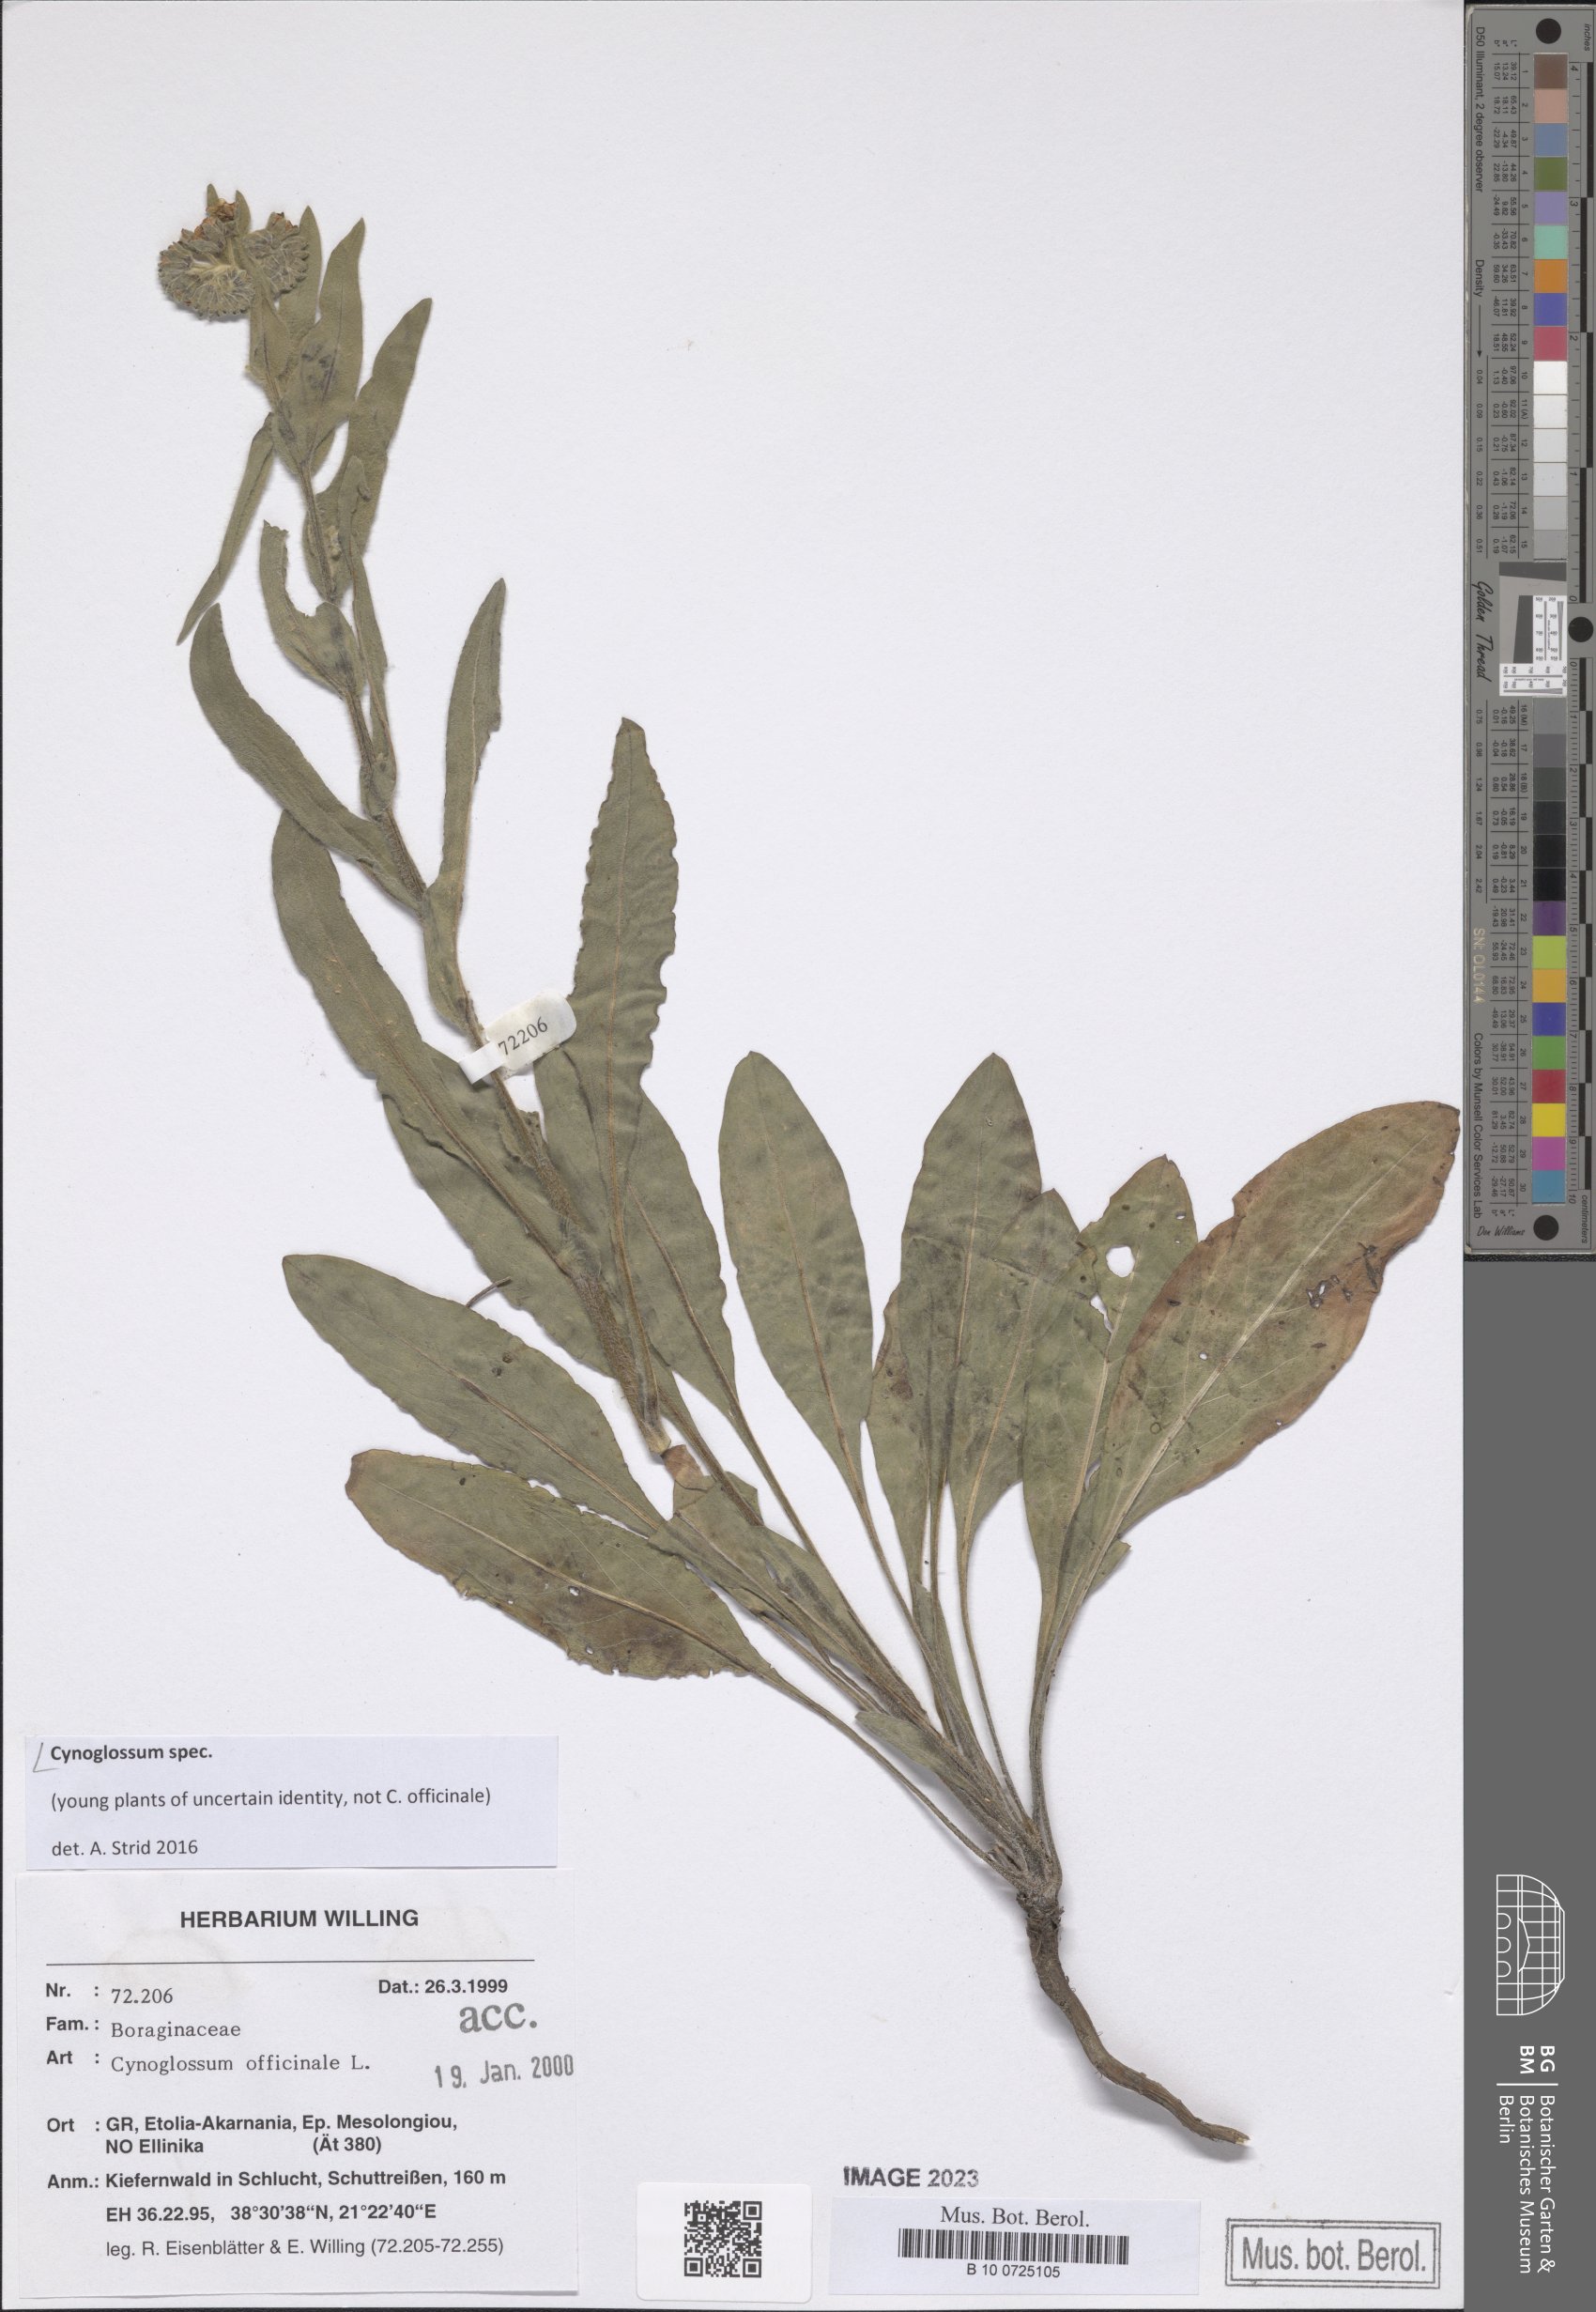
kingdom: Plantae
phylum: Tracheophyta
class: Magnoliopsida
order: Boraginales
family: Boraginaceae
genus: Cynoglossum
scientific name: Cynoglossum
